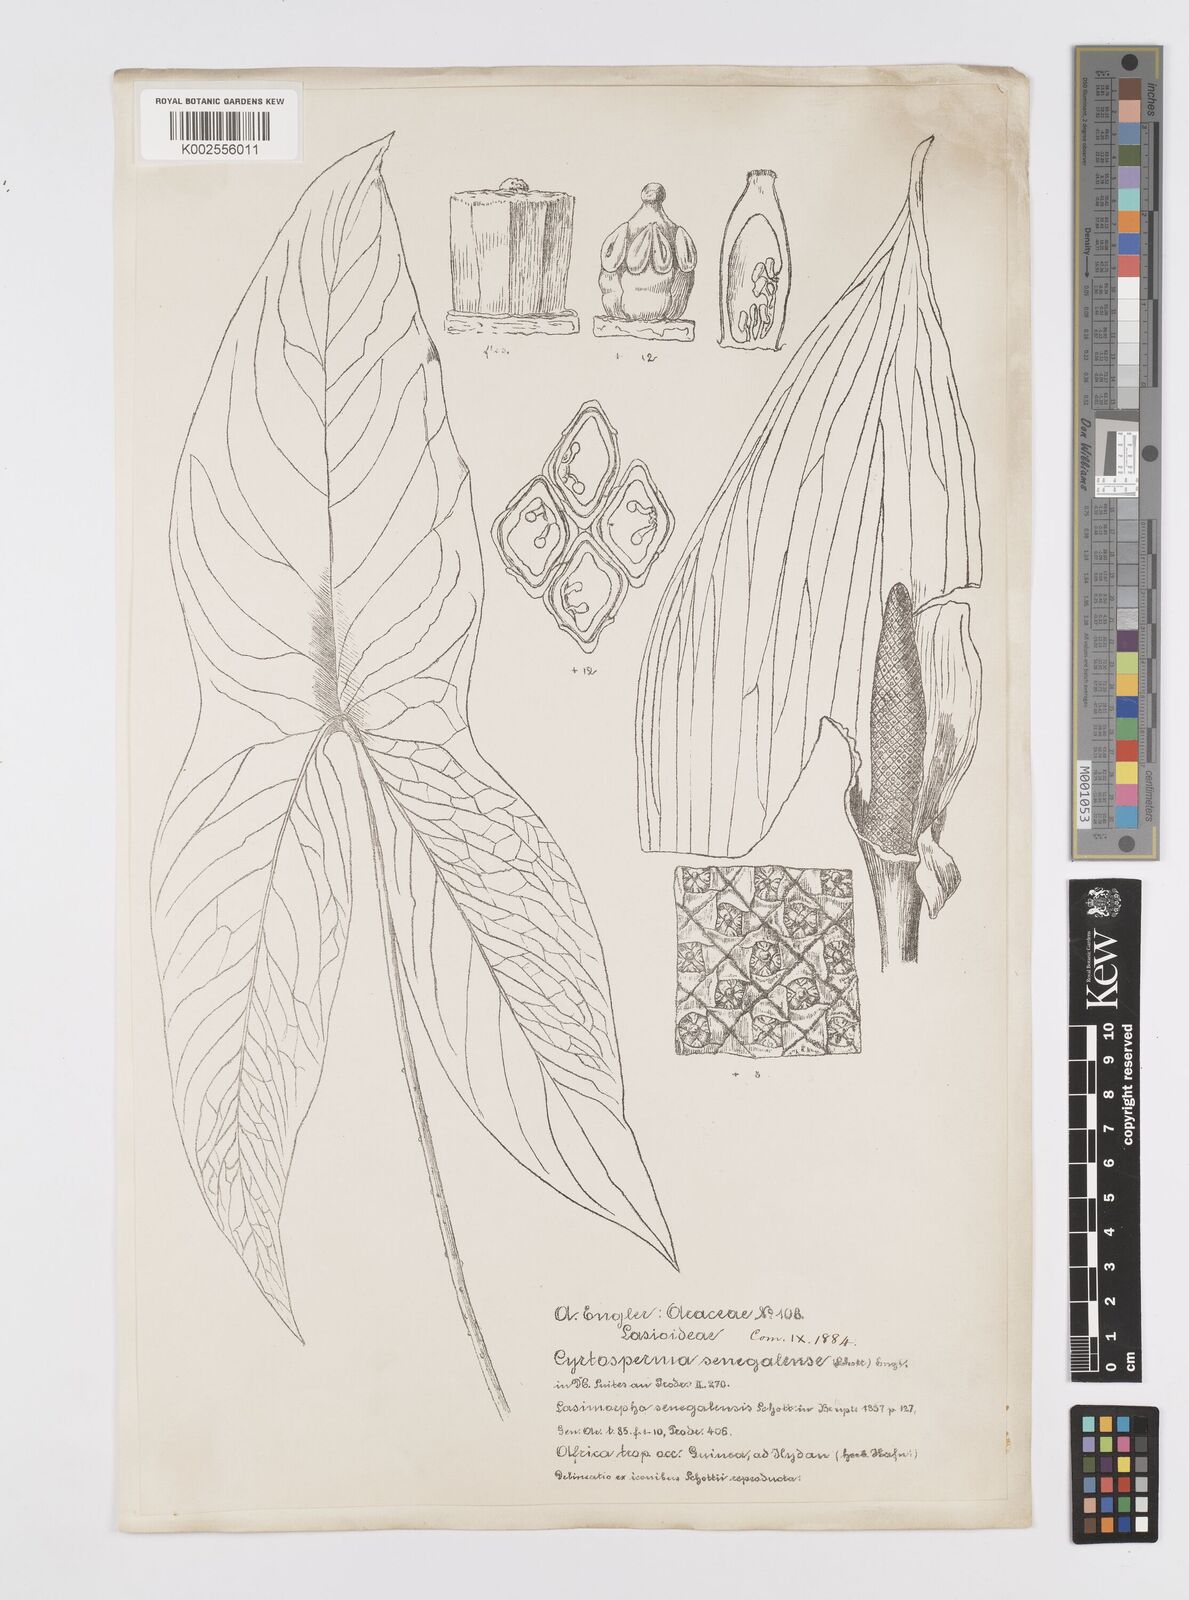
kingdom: Plantae
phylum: Tracheophyta
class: Liliopsida
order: Alismatales
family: Araceae
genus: Lasimorpha
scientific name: Lasimorpha senegalensis
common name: Swamp arum
